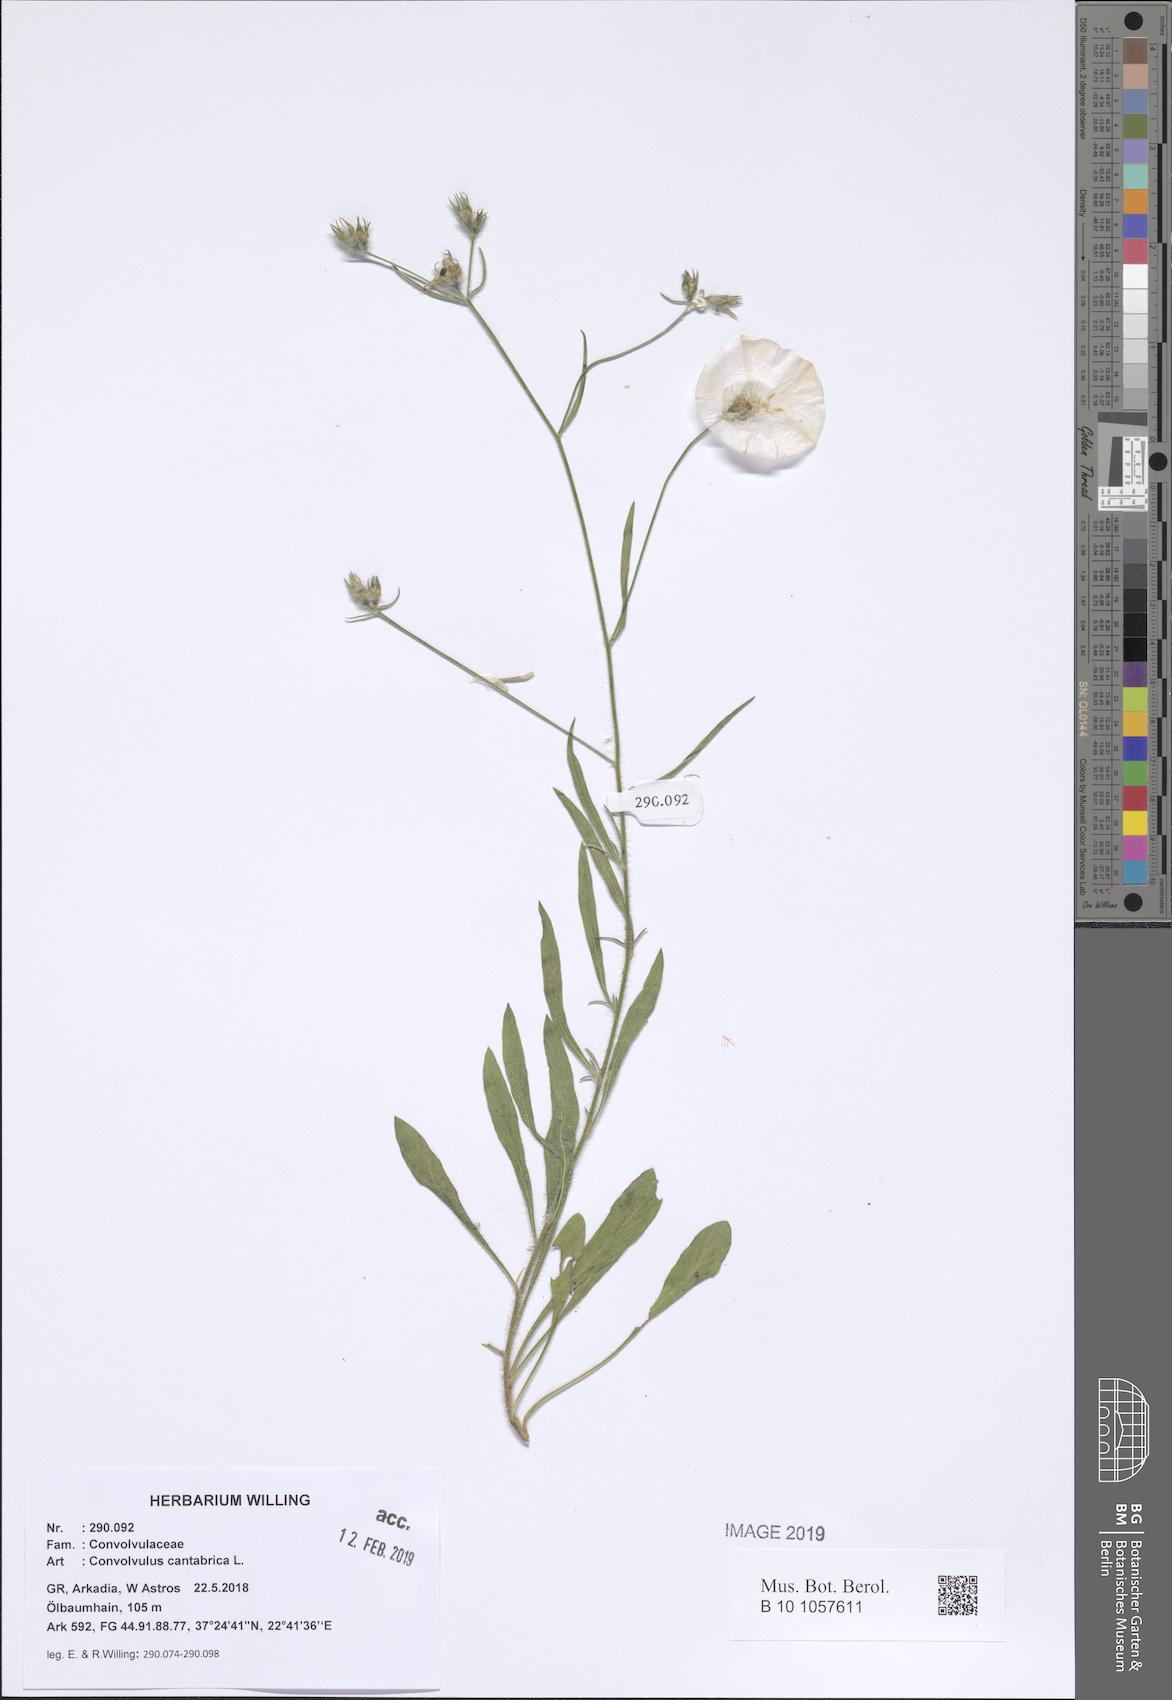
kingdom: Plantae
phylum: Tracheophyta
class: Magnoliopsida
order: Solanales
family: Convolvulaceae
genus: Convolvulus
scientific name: Convolvulus cantabrica
